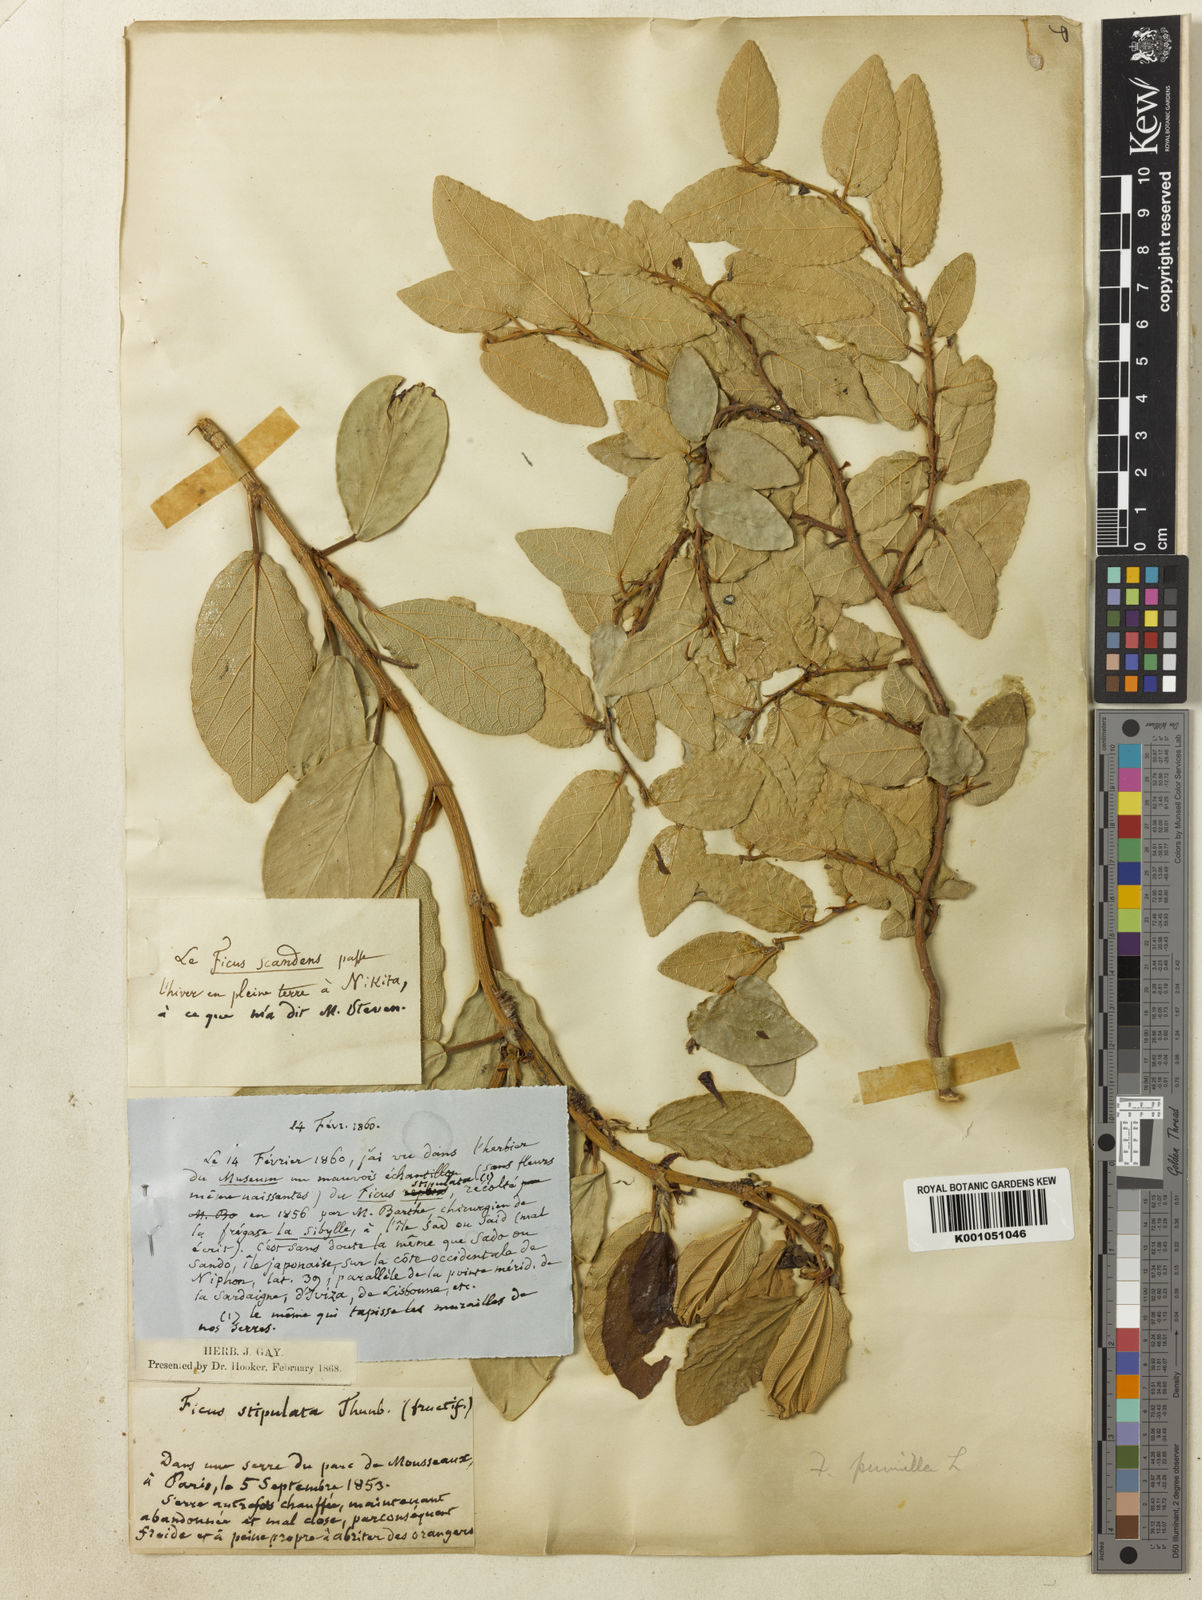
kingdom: Plantae
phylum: Tracheophyta
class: Magnoliopsida
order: Rosales
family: Moraceae
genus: Ficus
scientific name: Ficus pumila
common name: Climbingfig
